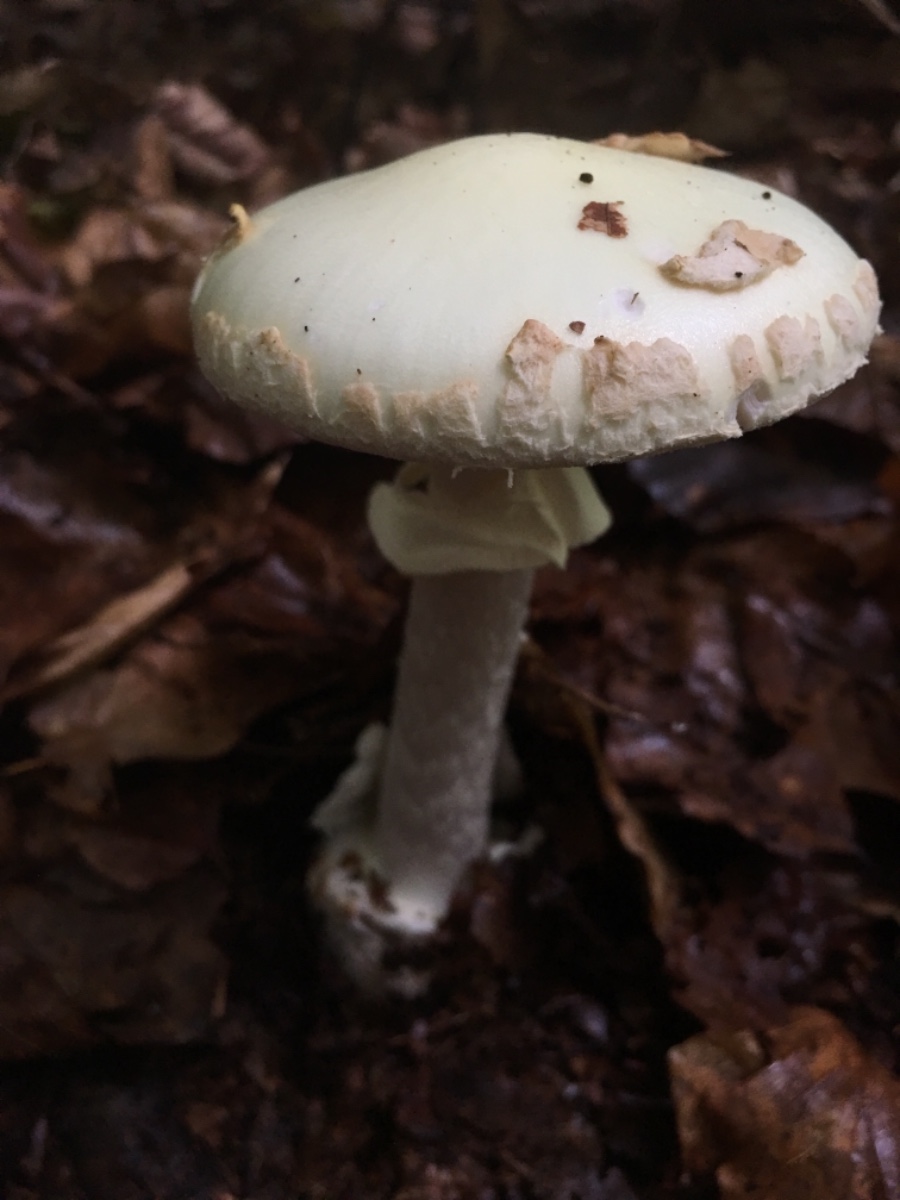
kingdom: Fungi
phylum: Basidiomycota
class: Agaricomycetes
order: Agaricales
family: Amanitaceae
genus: Amanita
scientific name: Amanita citrina
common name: kugleknoldet fluesvamp
